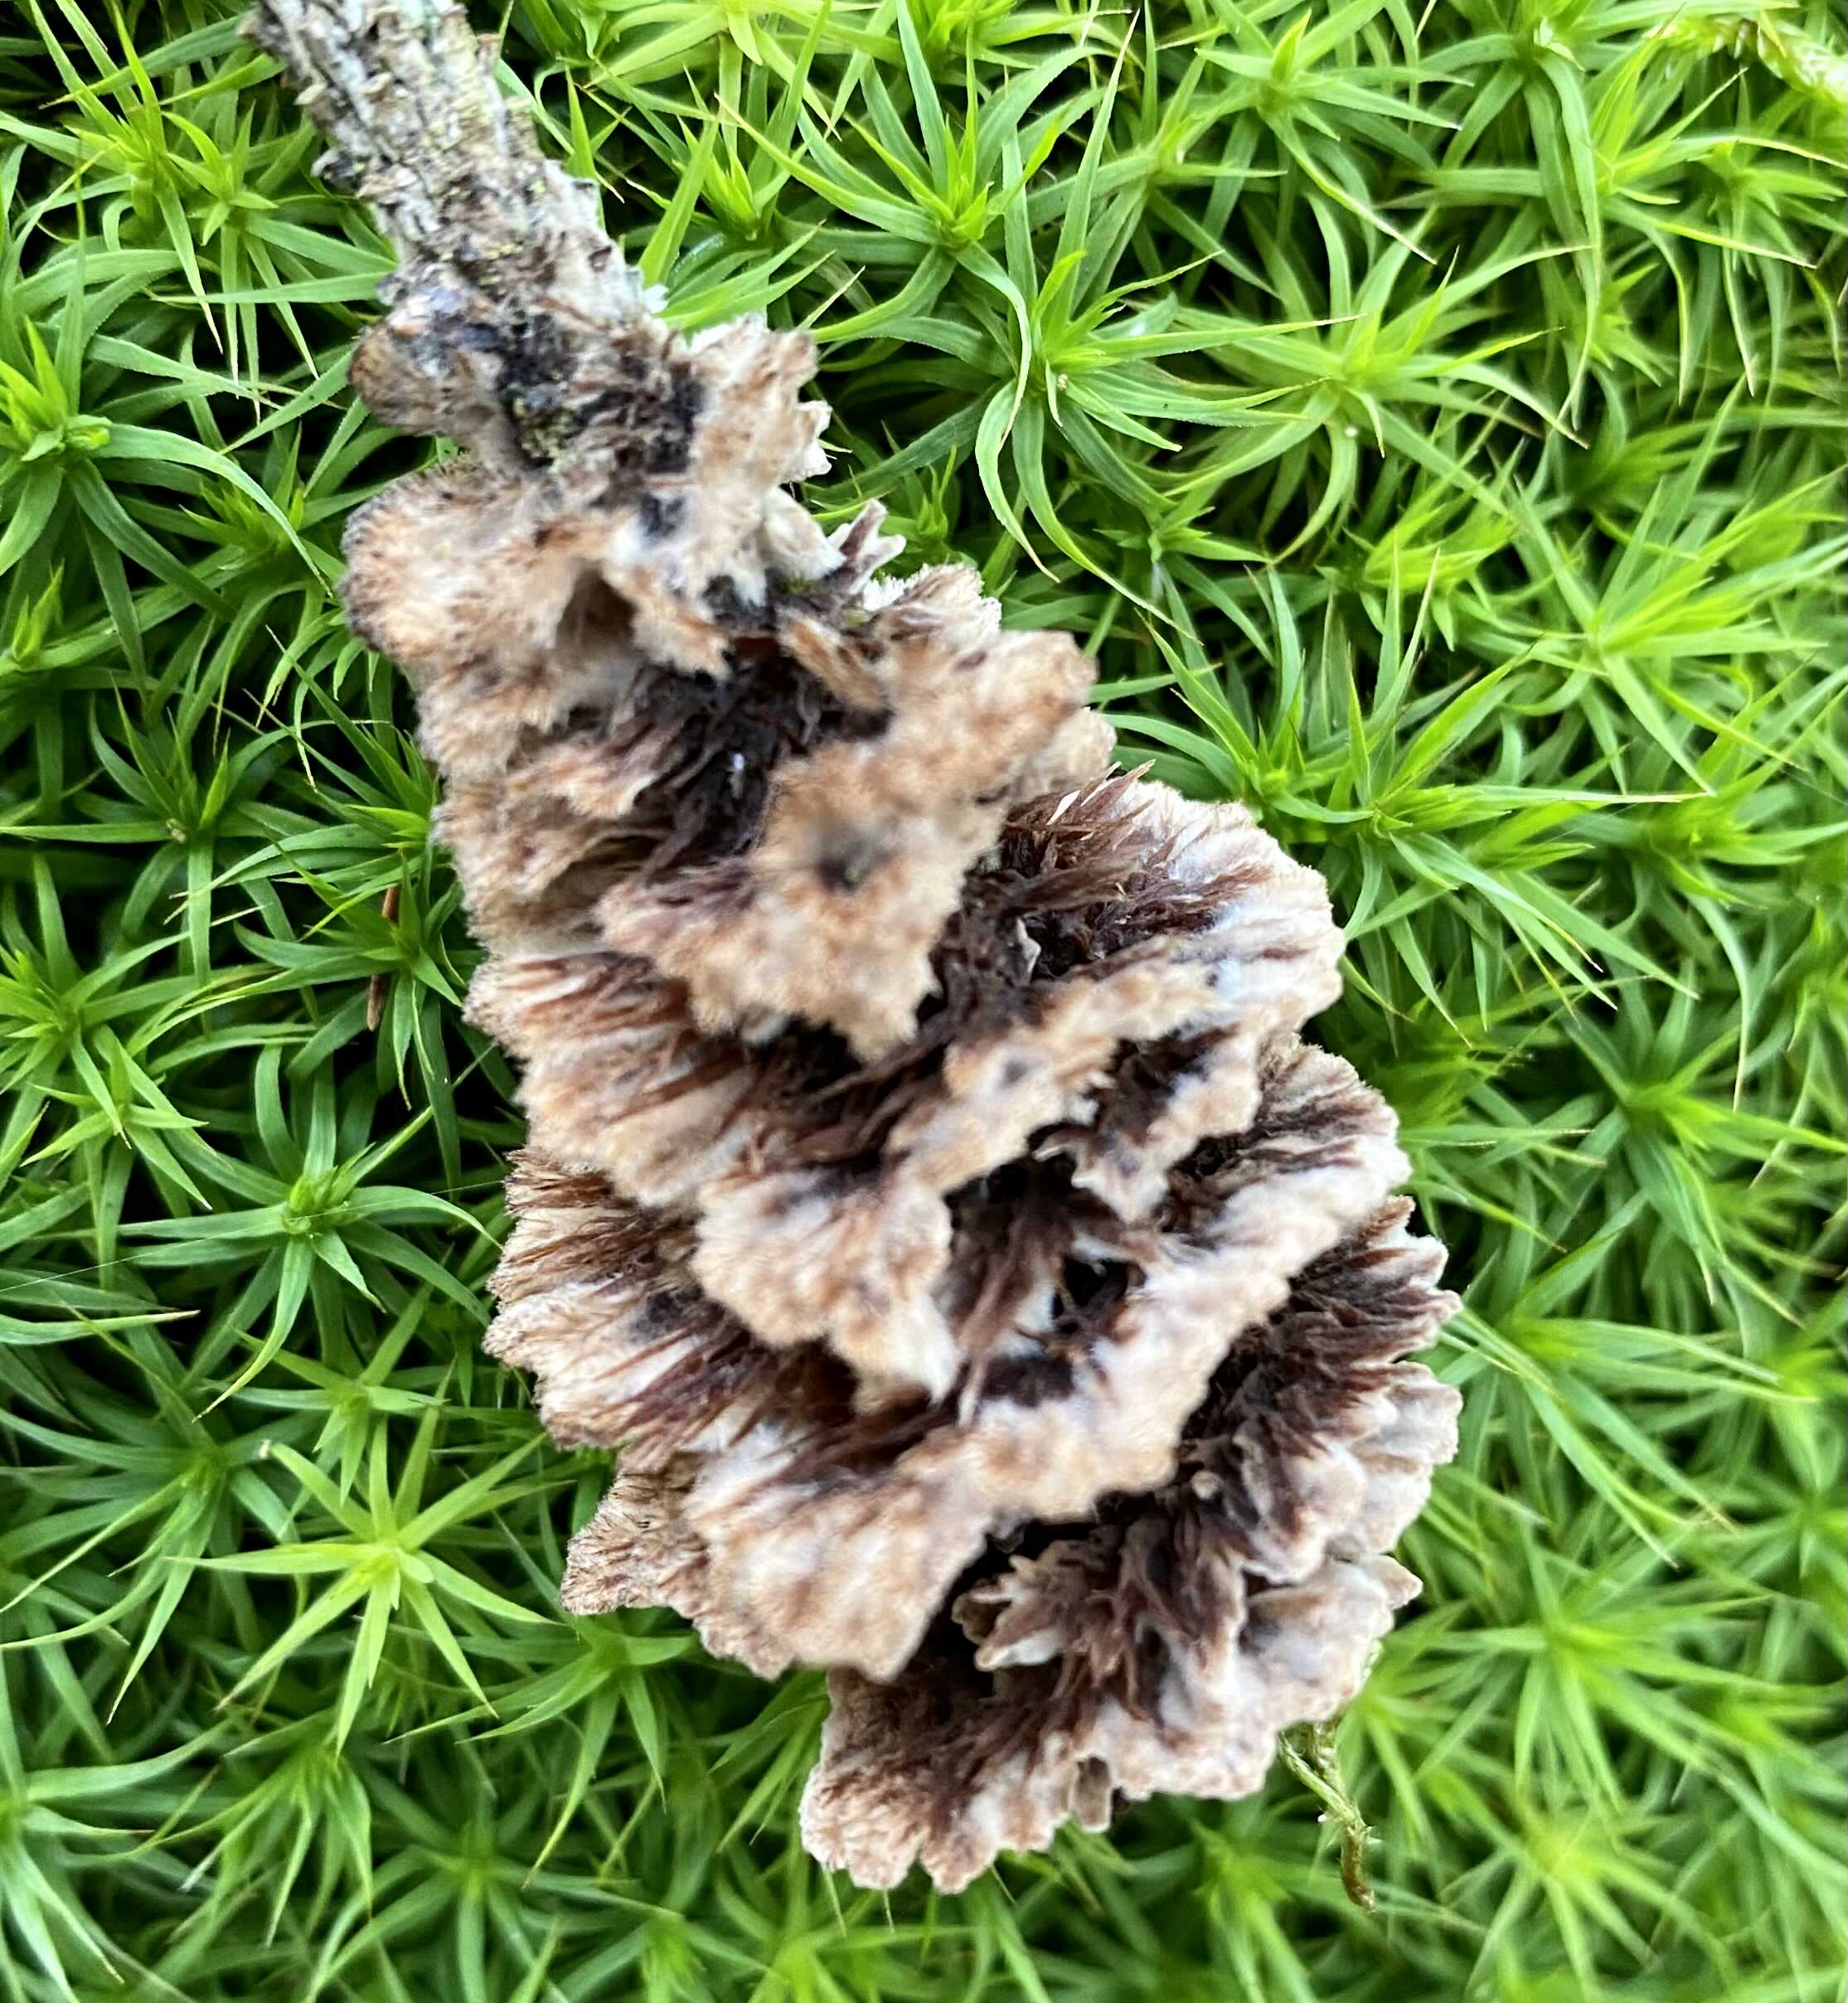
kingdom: Fungi
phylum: Basidiomycota
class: Agaricomycetes
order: Thelephorales
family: Thelephoraceae
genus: Thelephora
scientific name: Thelephora terrestris
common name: fliget frynsesvamp
